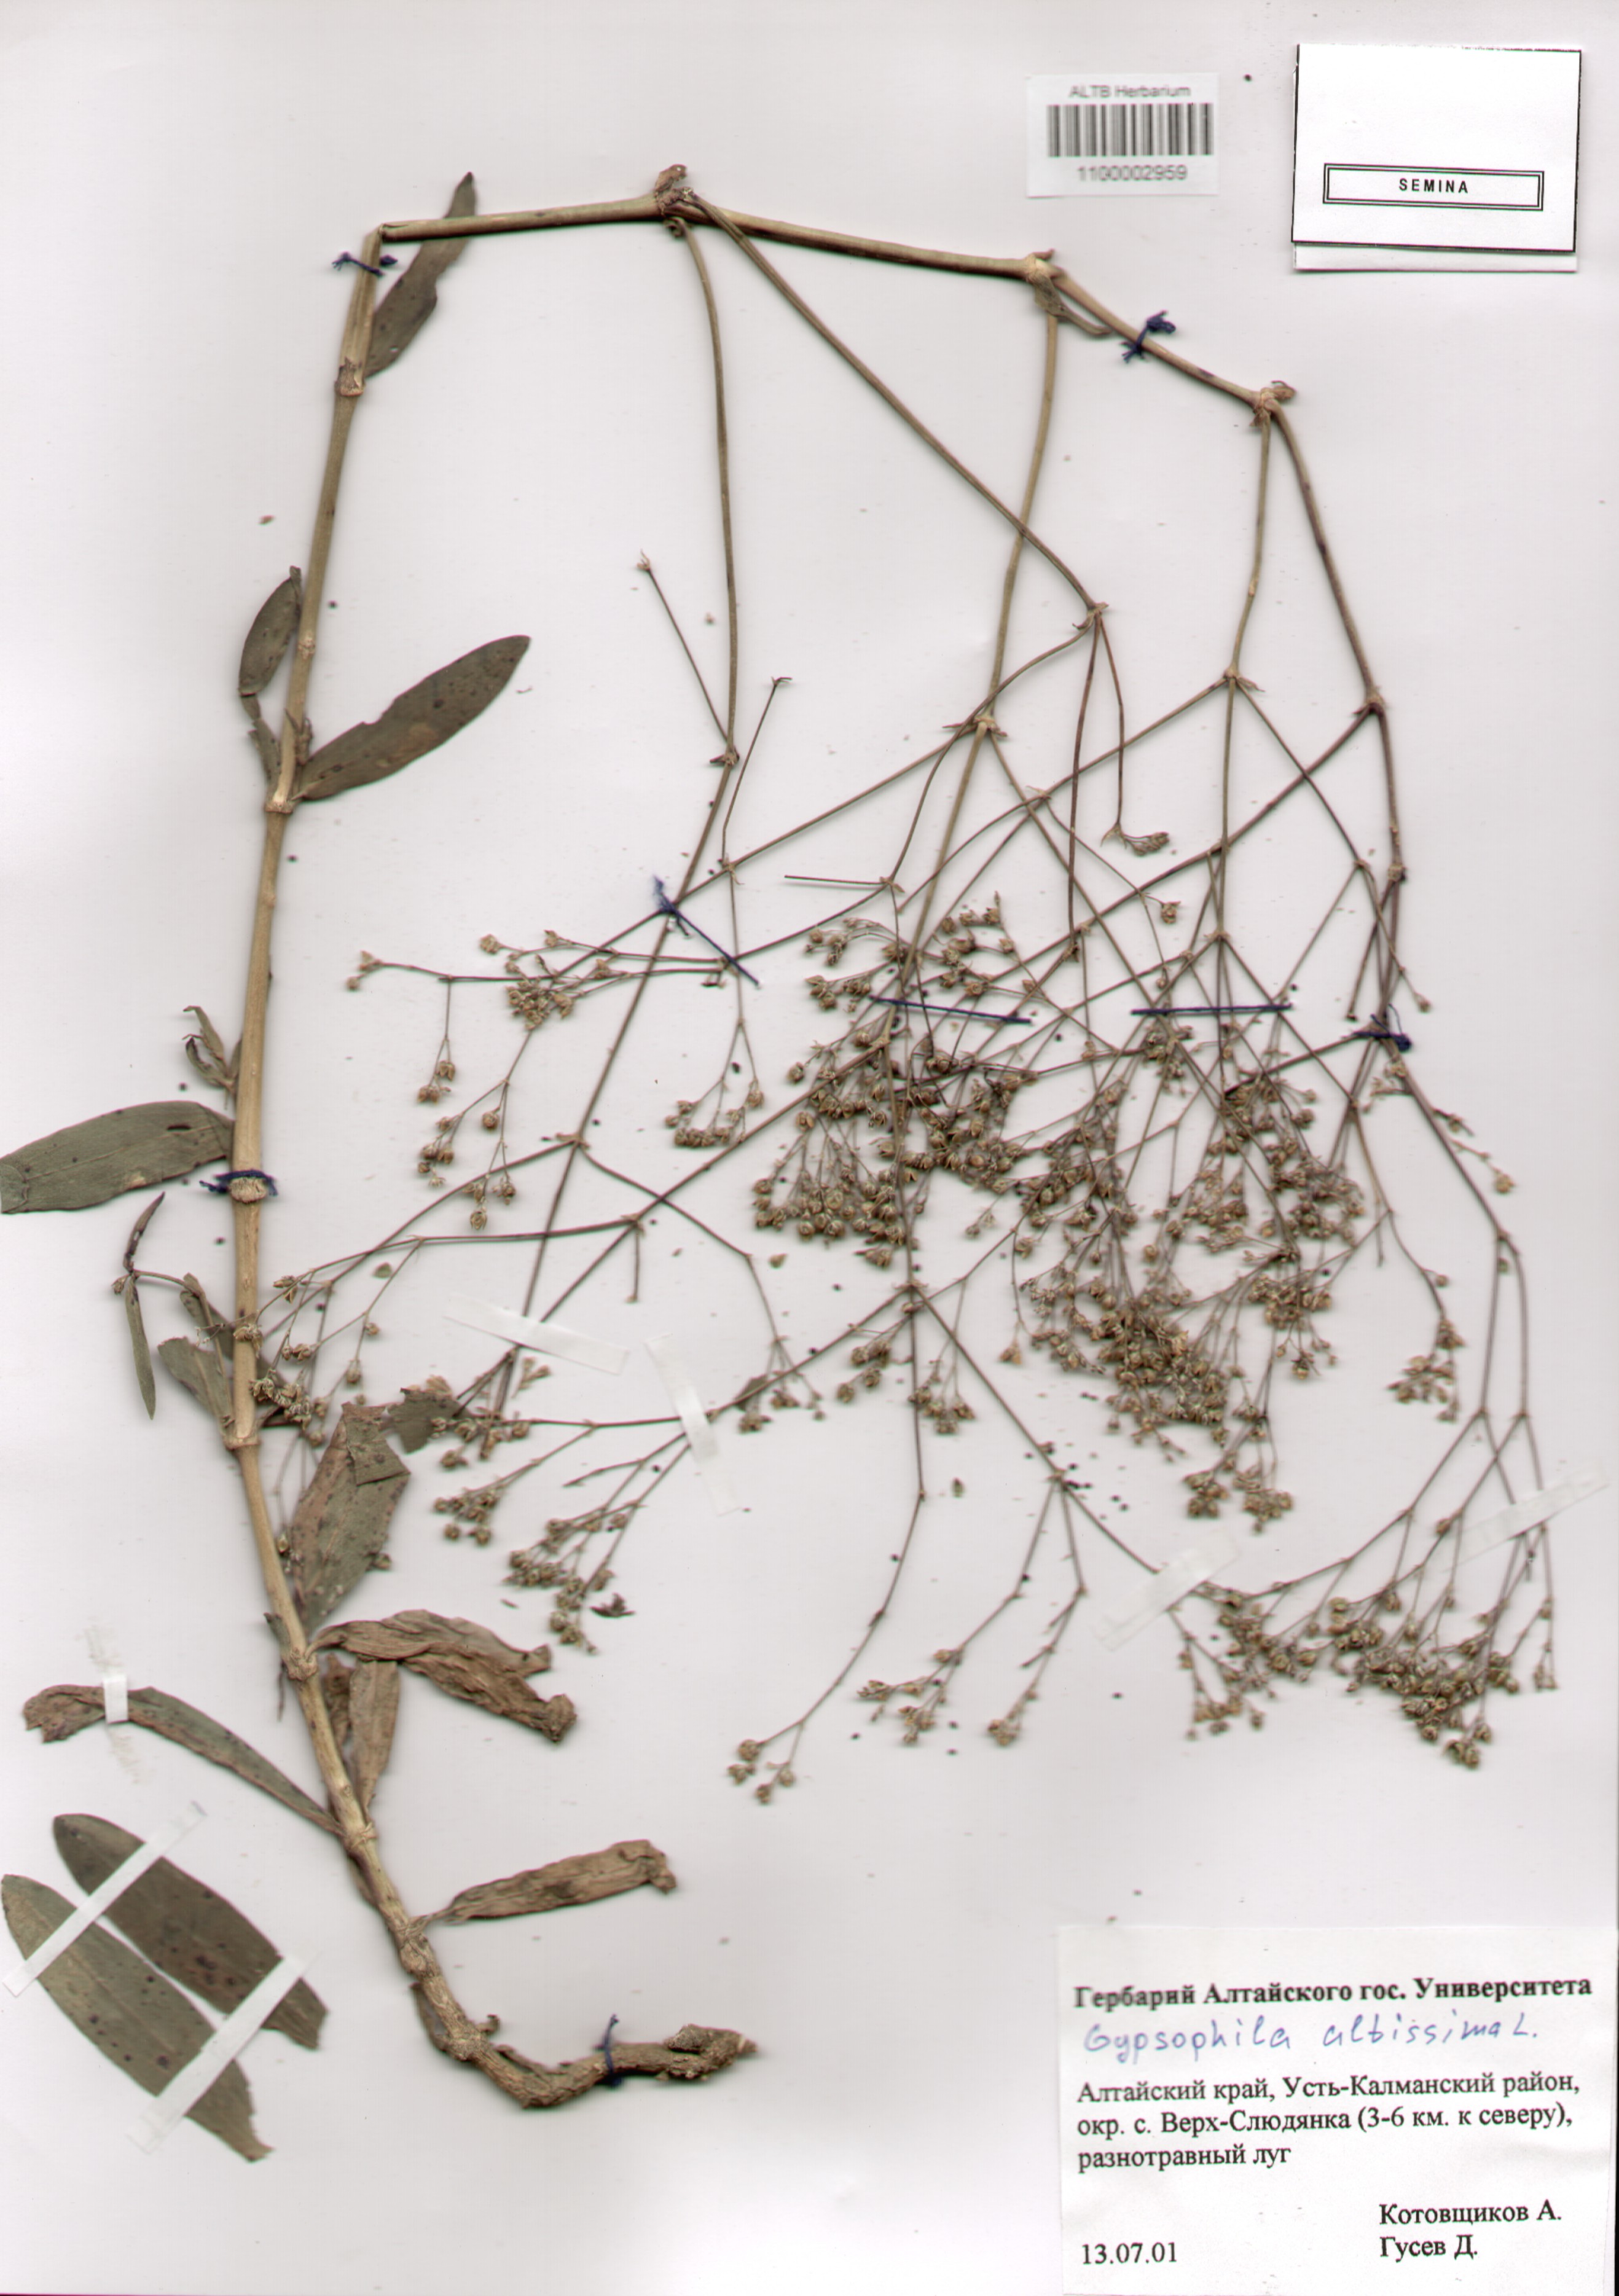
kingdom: Plantae
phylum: Tracheophyta
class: Magnoliopsida
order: Caryophyllales
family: Caryophyllaceae
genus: Gypsophila
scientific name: Gypsophila altissima
